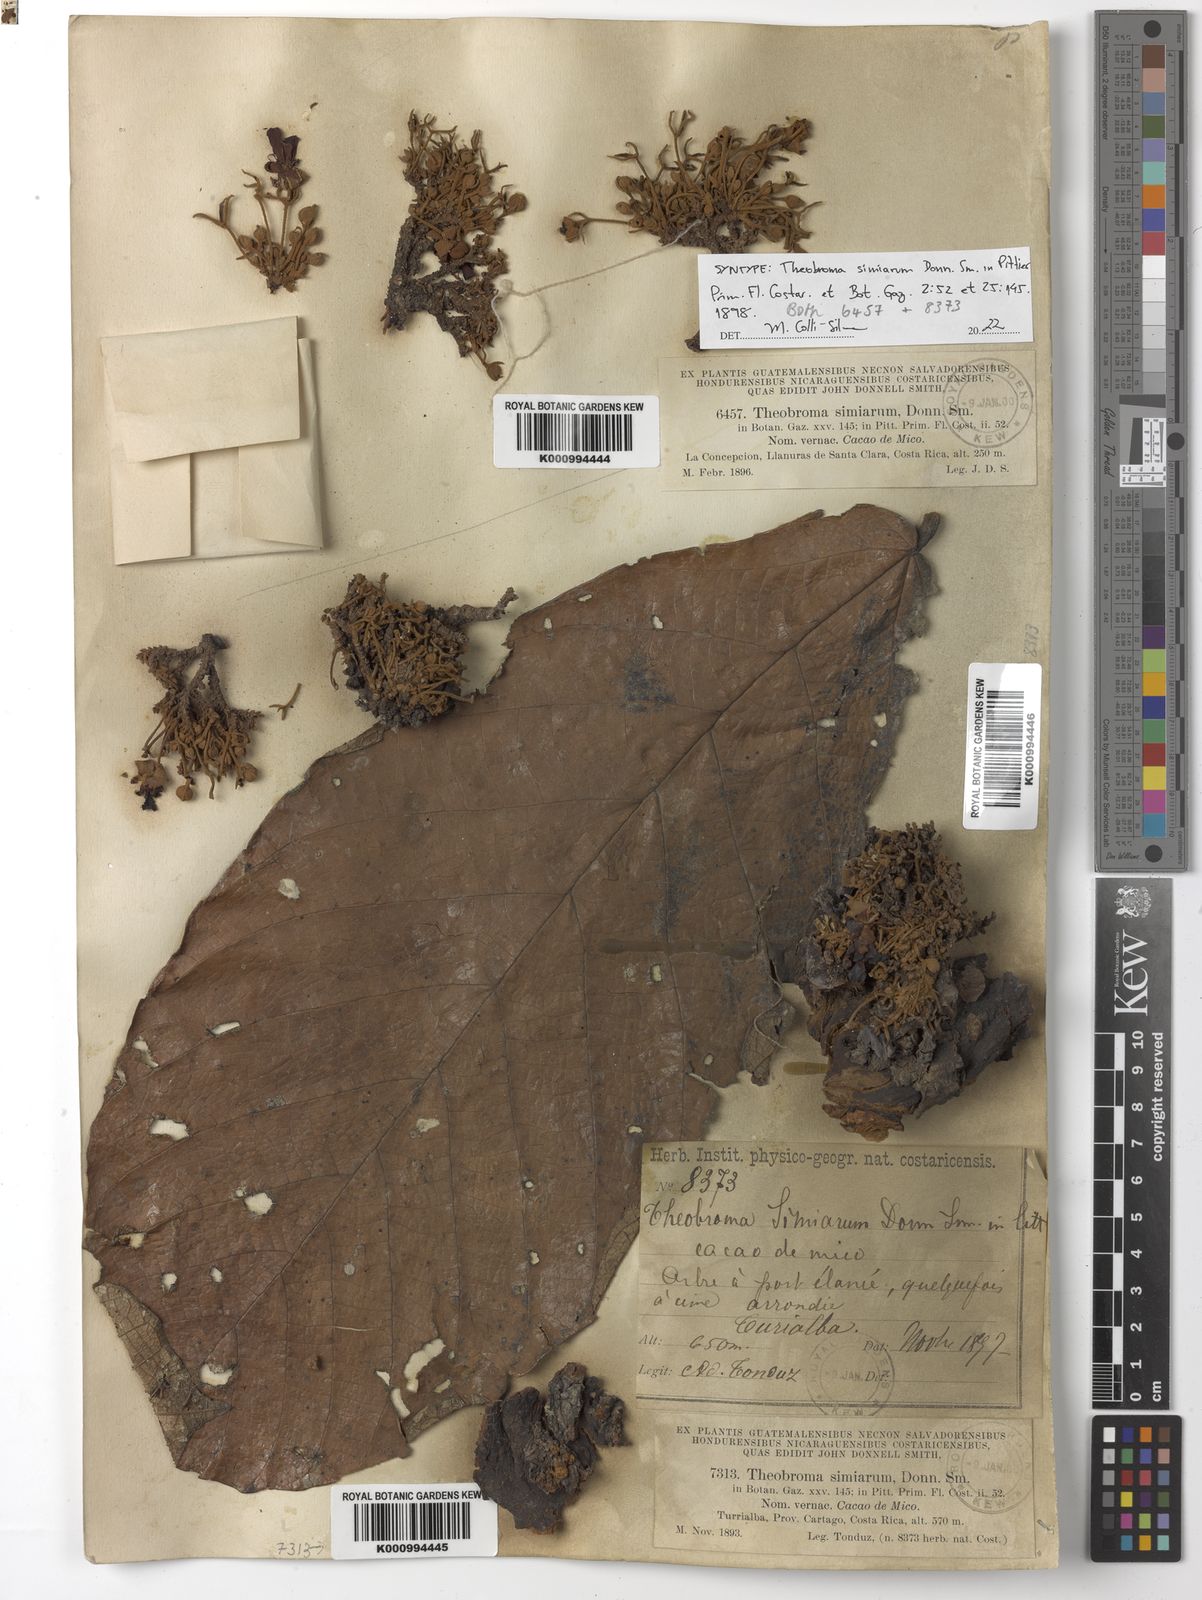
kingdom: Plantae
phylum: Tracheophyta
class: Magnoliopsida
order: Malvales
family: Malvaceae
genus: Theobroma
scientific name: Theobroma simiarum
